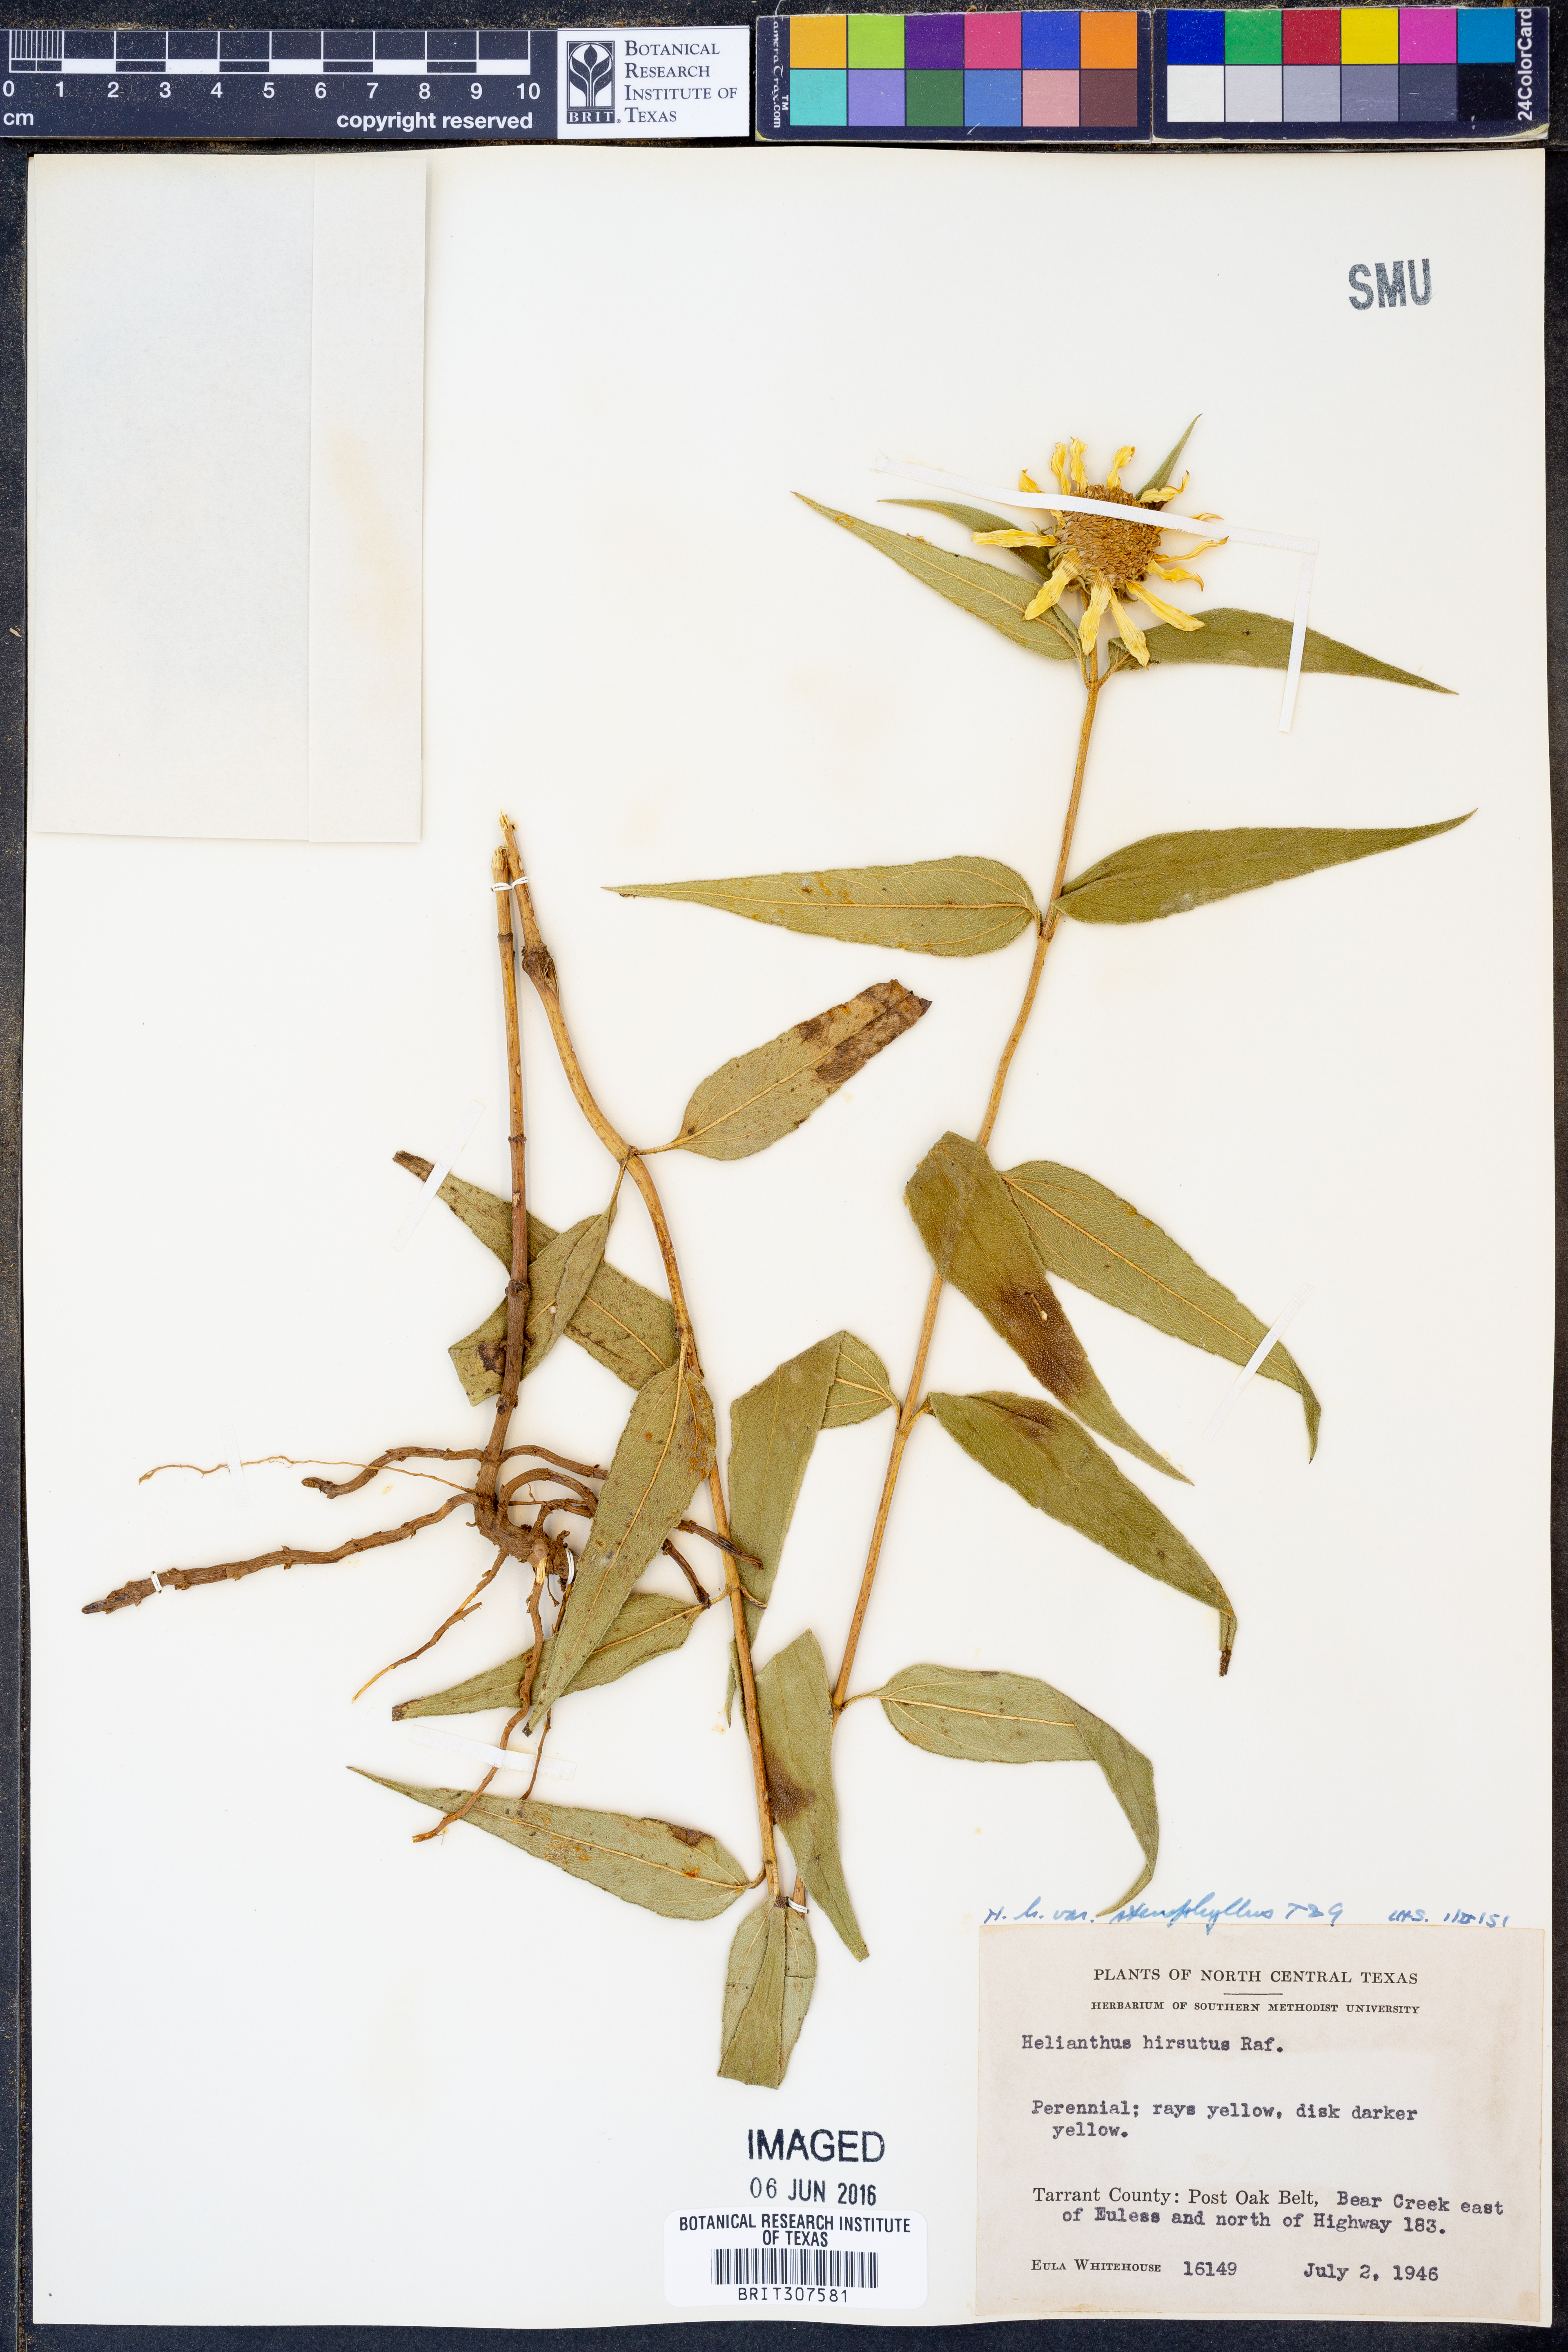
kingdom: Plantae
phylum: Tracheophyta
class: Magnoliopsida
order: Asterales
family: Asteraceae
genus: Helianthus
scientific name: Helianthus hirsutus
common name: Hairy sunflower
